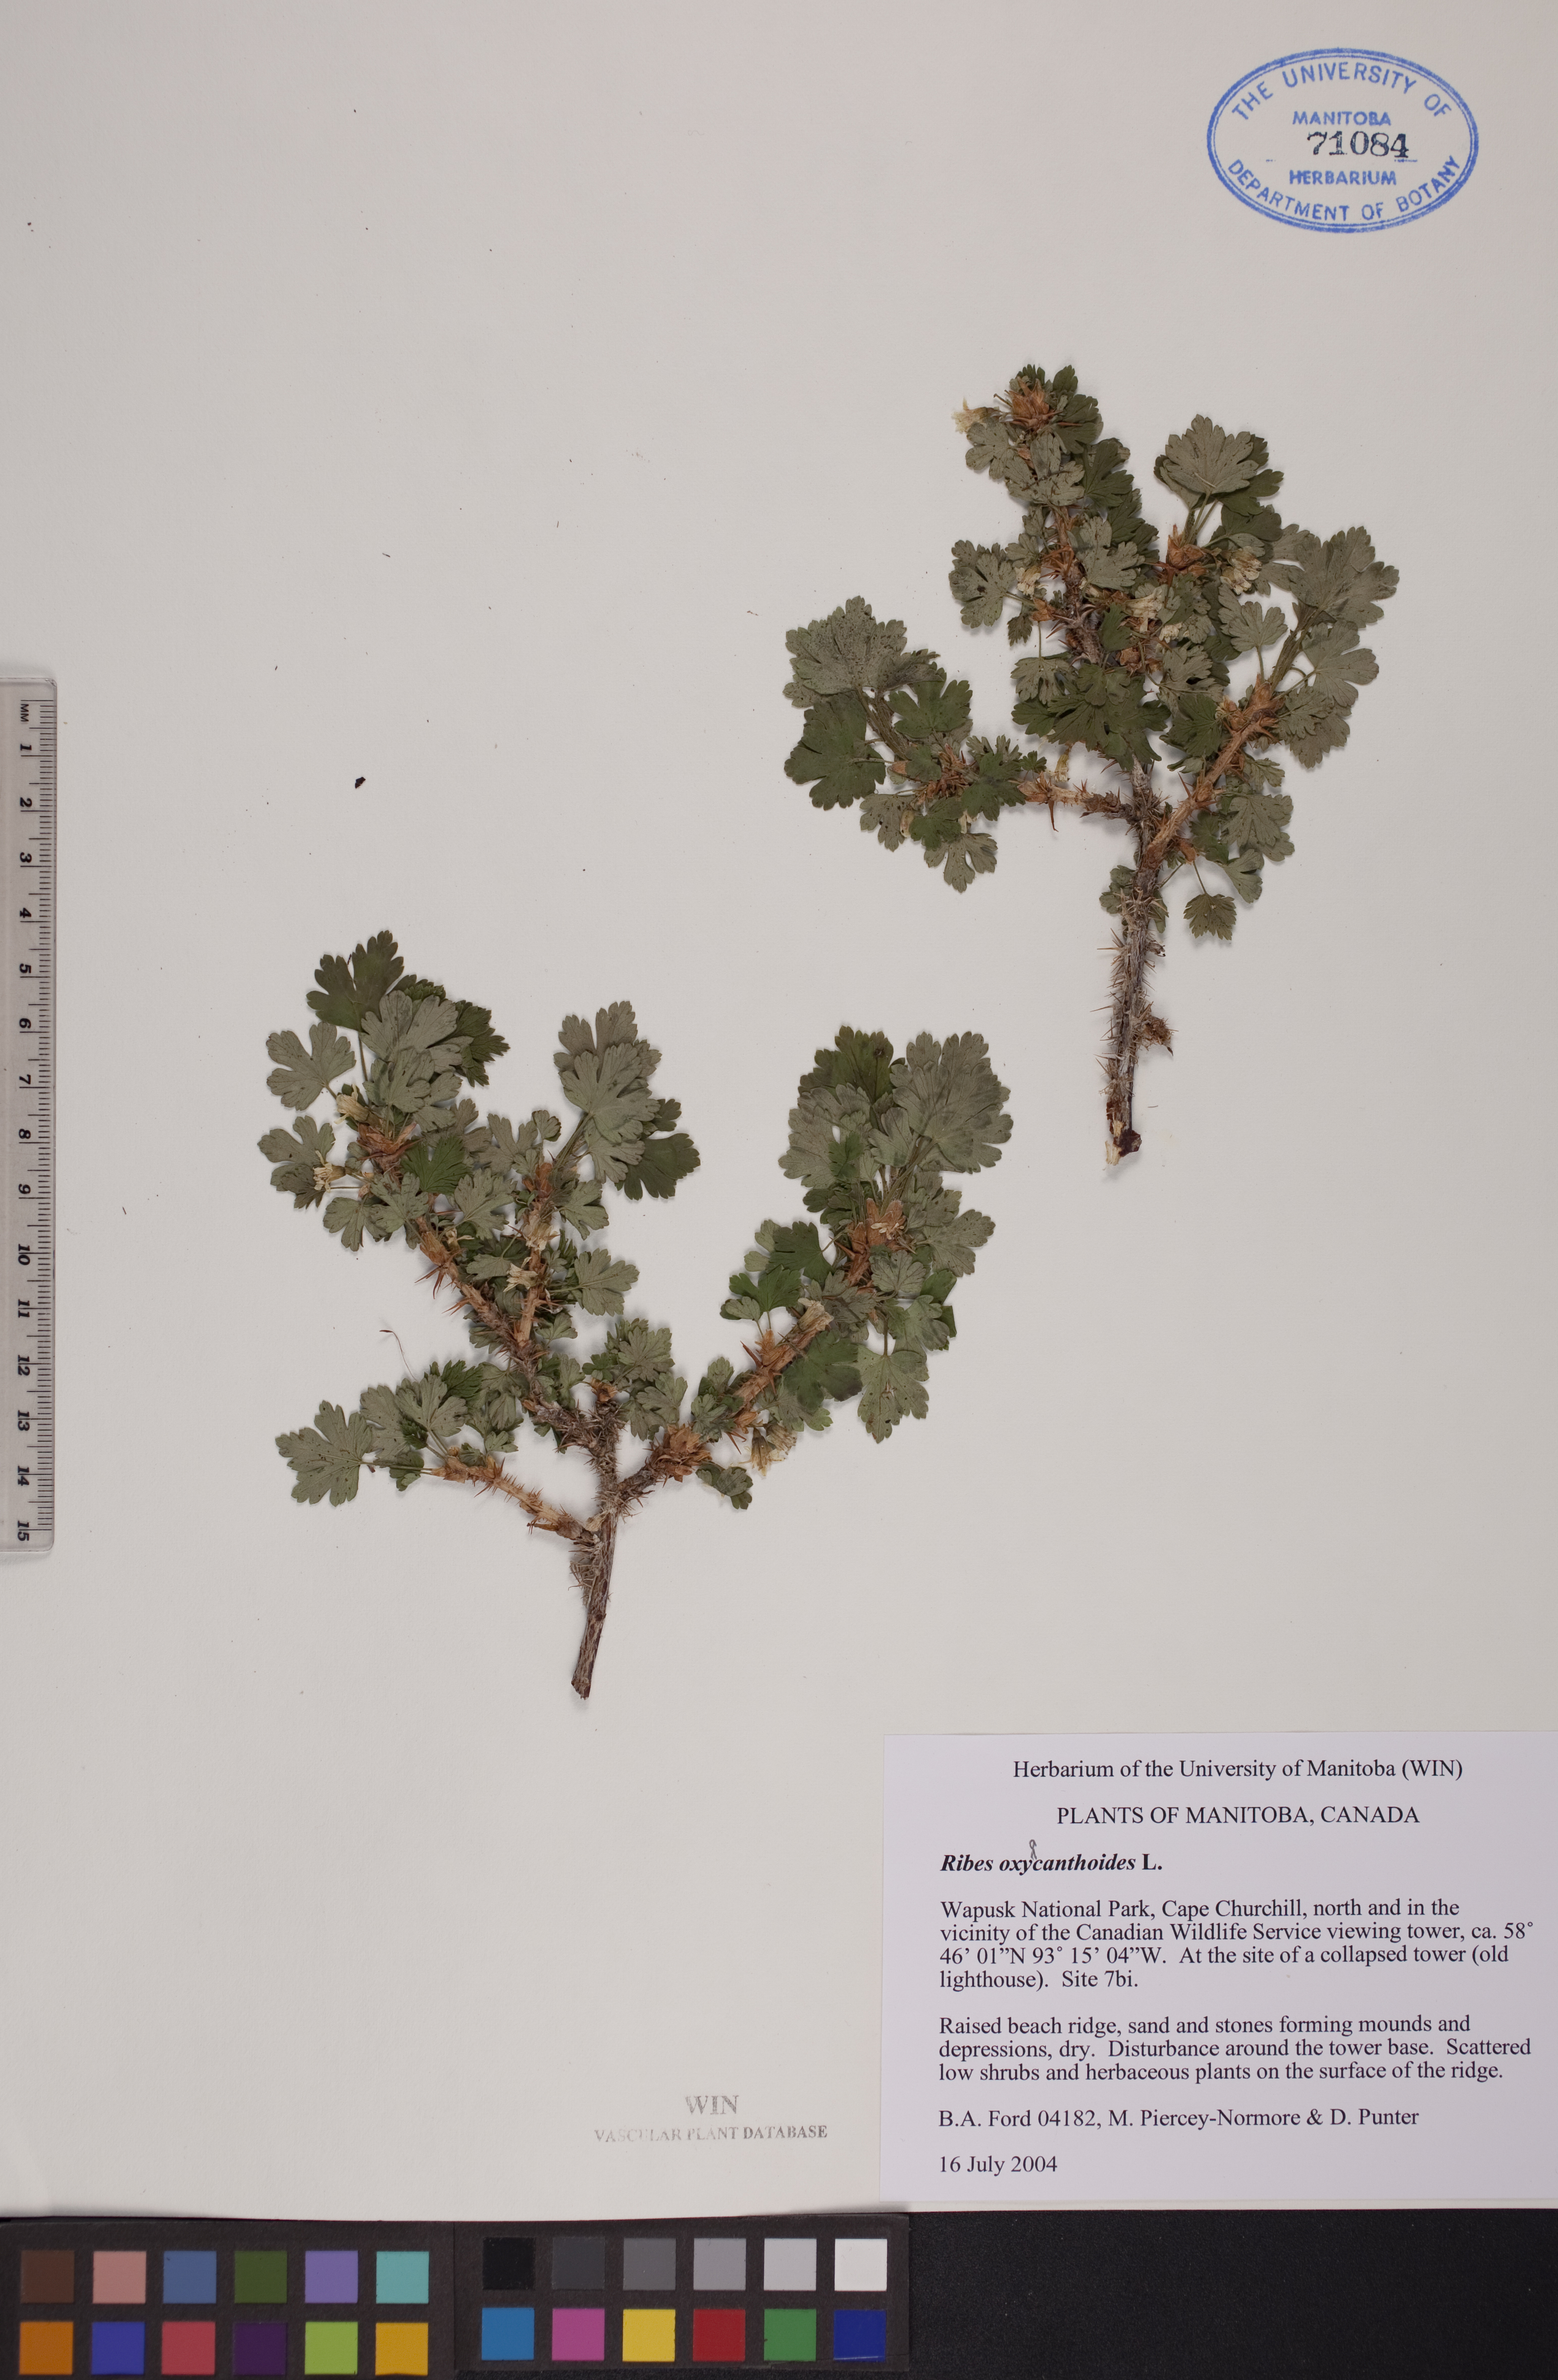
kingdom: Plantae
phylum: Tracheophyta
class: Magnoliopsida
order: Saxifragales
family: Grossulariaceae
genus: Ribes
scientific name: Ribes oxyacanthoides
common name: Northern gooseberry
